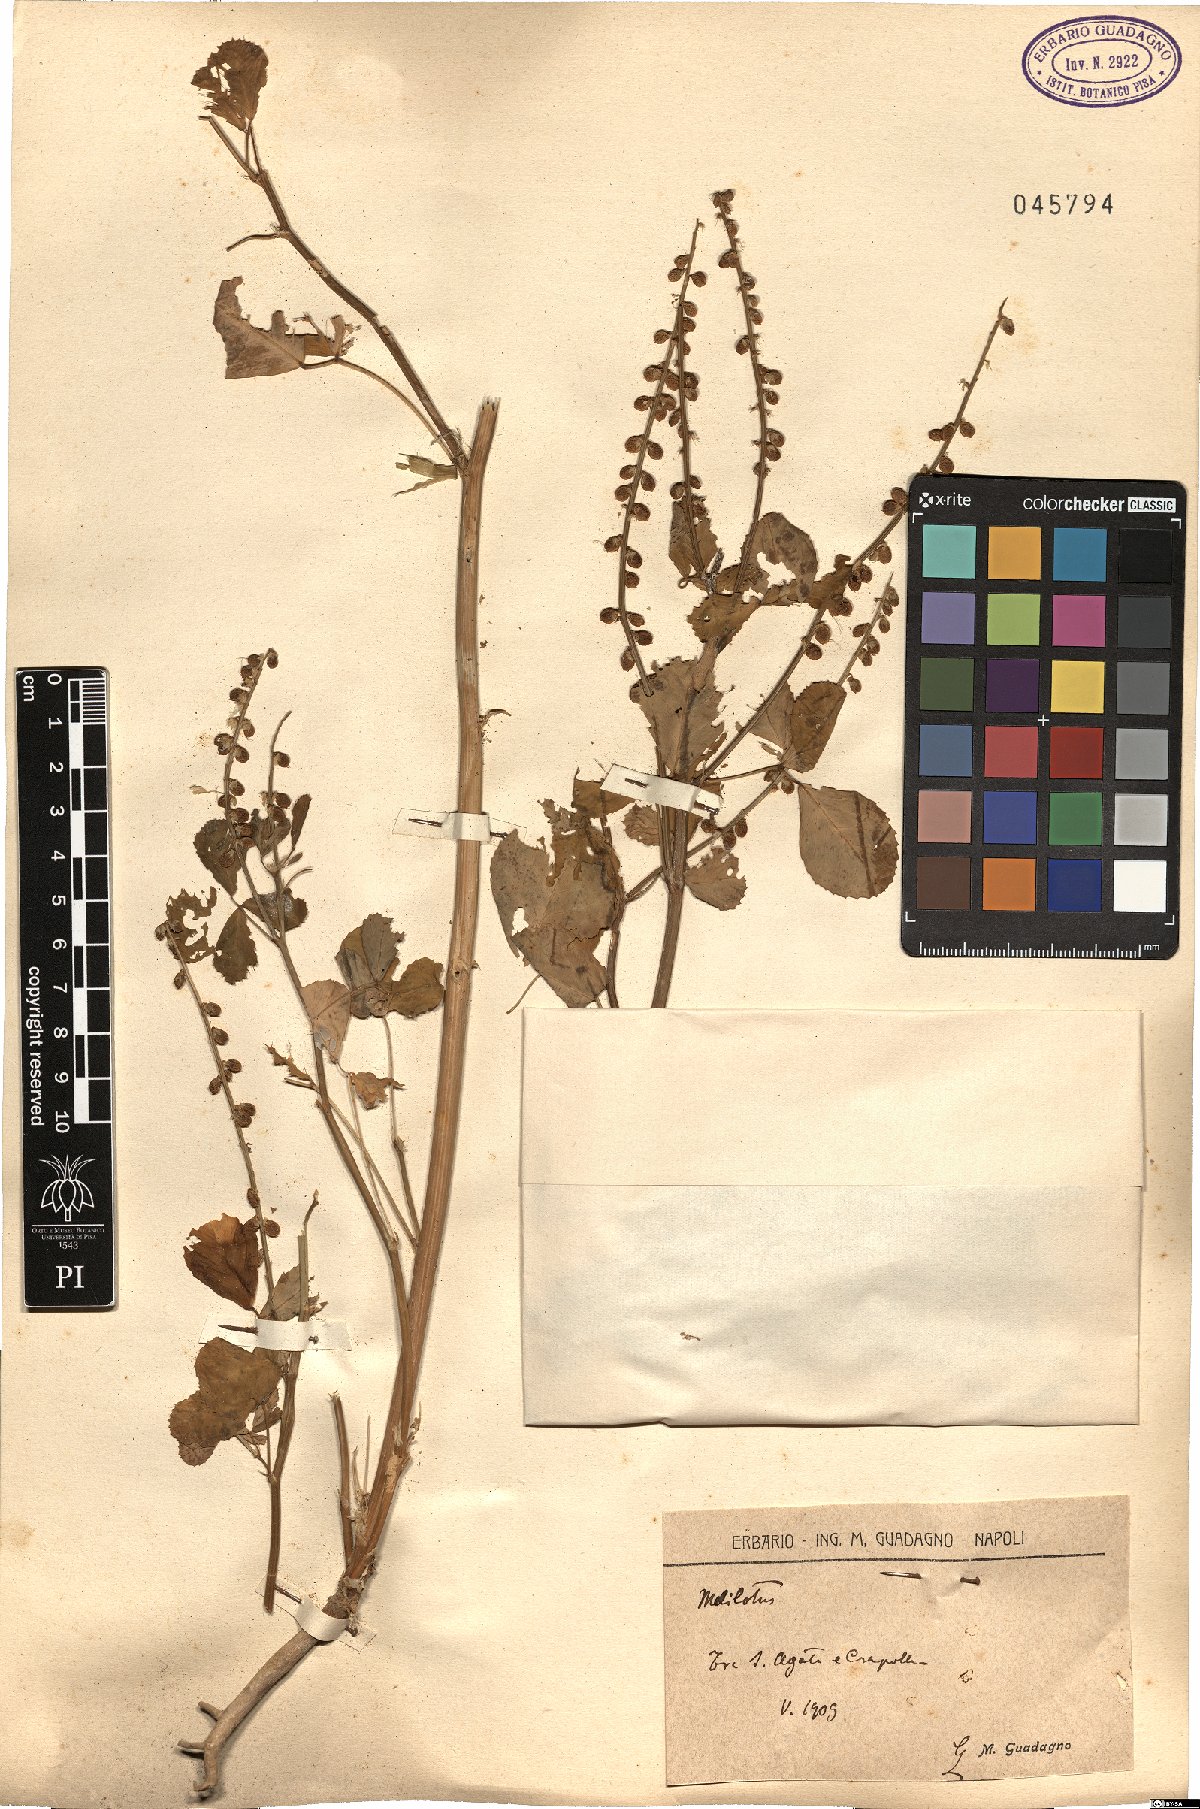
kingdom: Plantae
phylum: Tracheophyta
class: Magnoliopsida
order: Fabales
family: Fabaceae
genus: Melilotus
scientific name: Melilotus
